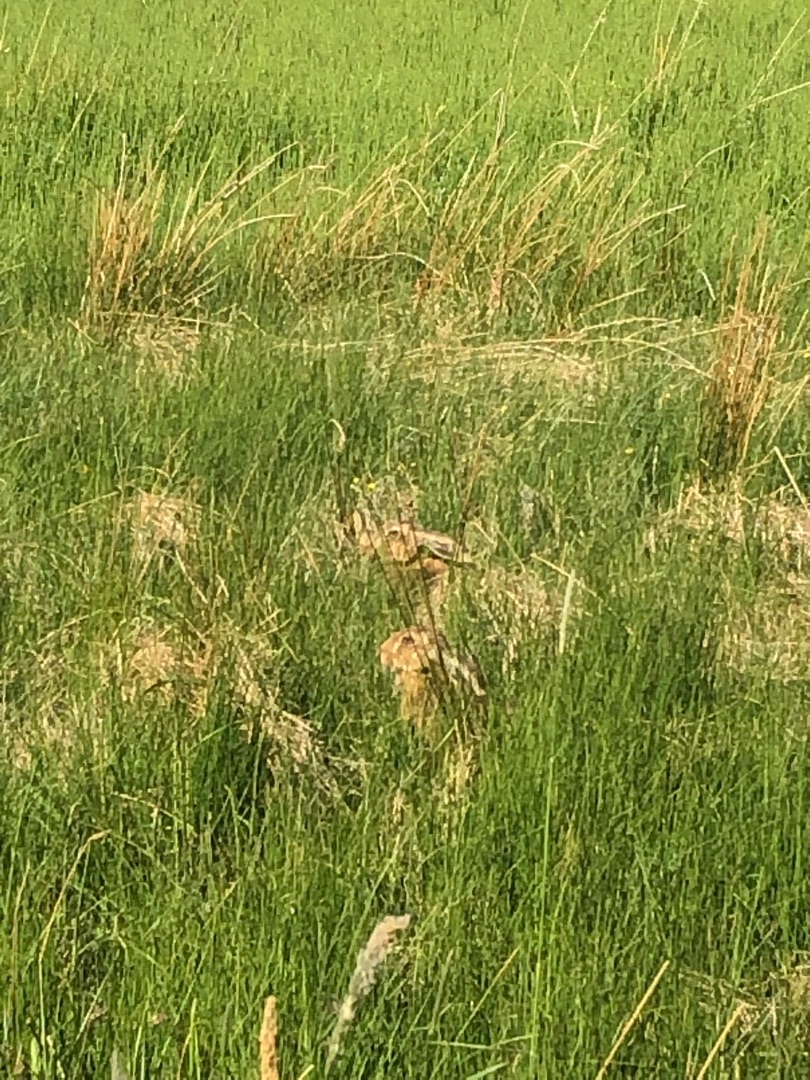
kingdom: Animalia
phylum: Chordata
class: Mammalia
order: Lagomorpha
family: Leporidae
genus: Lepus
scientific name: Lepus europaeus
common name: Hare
